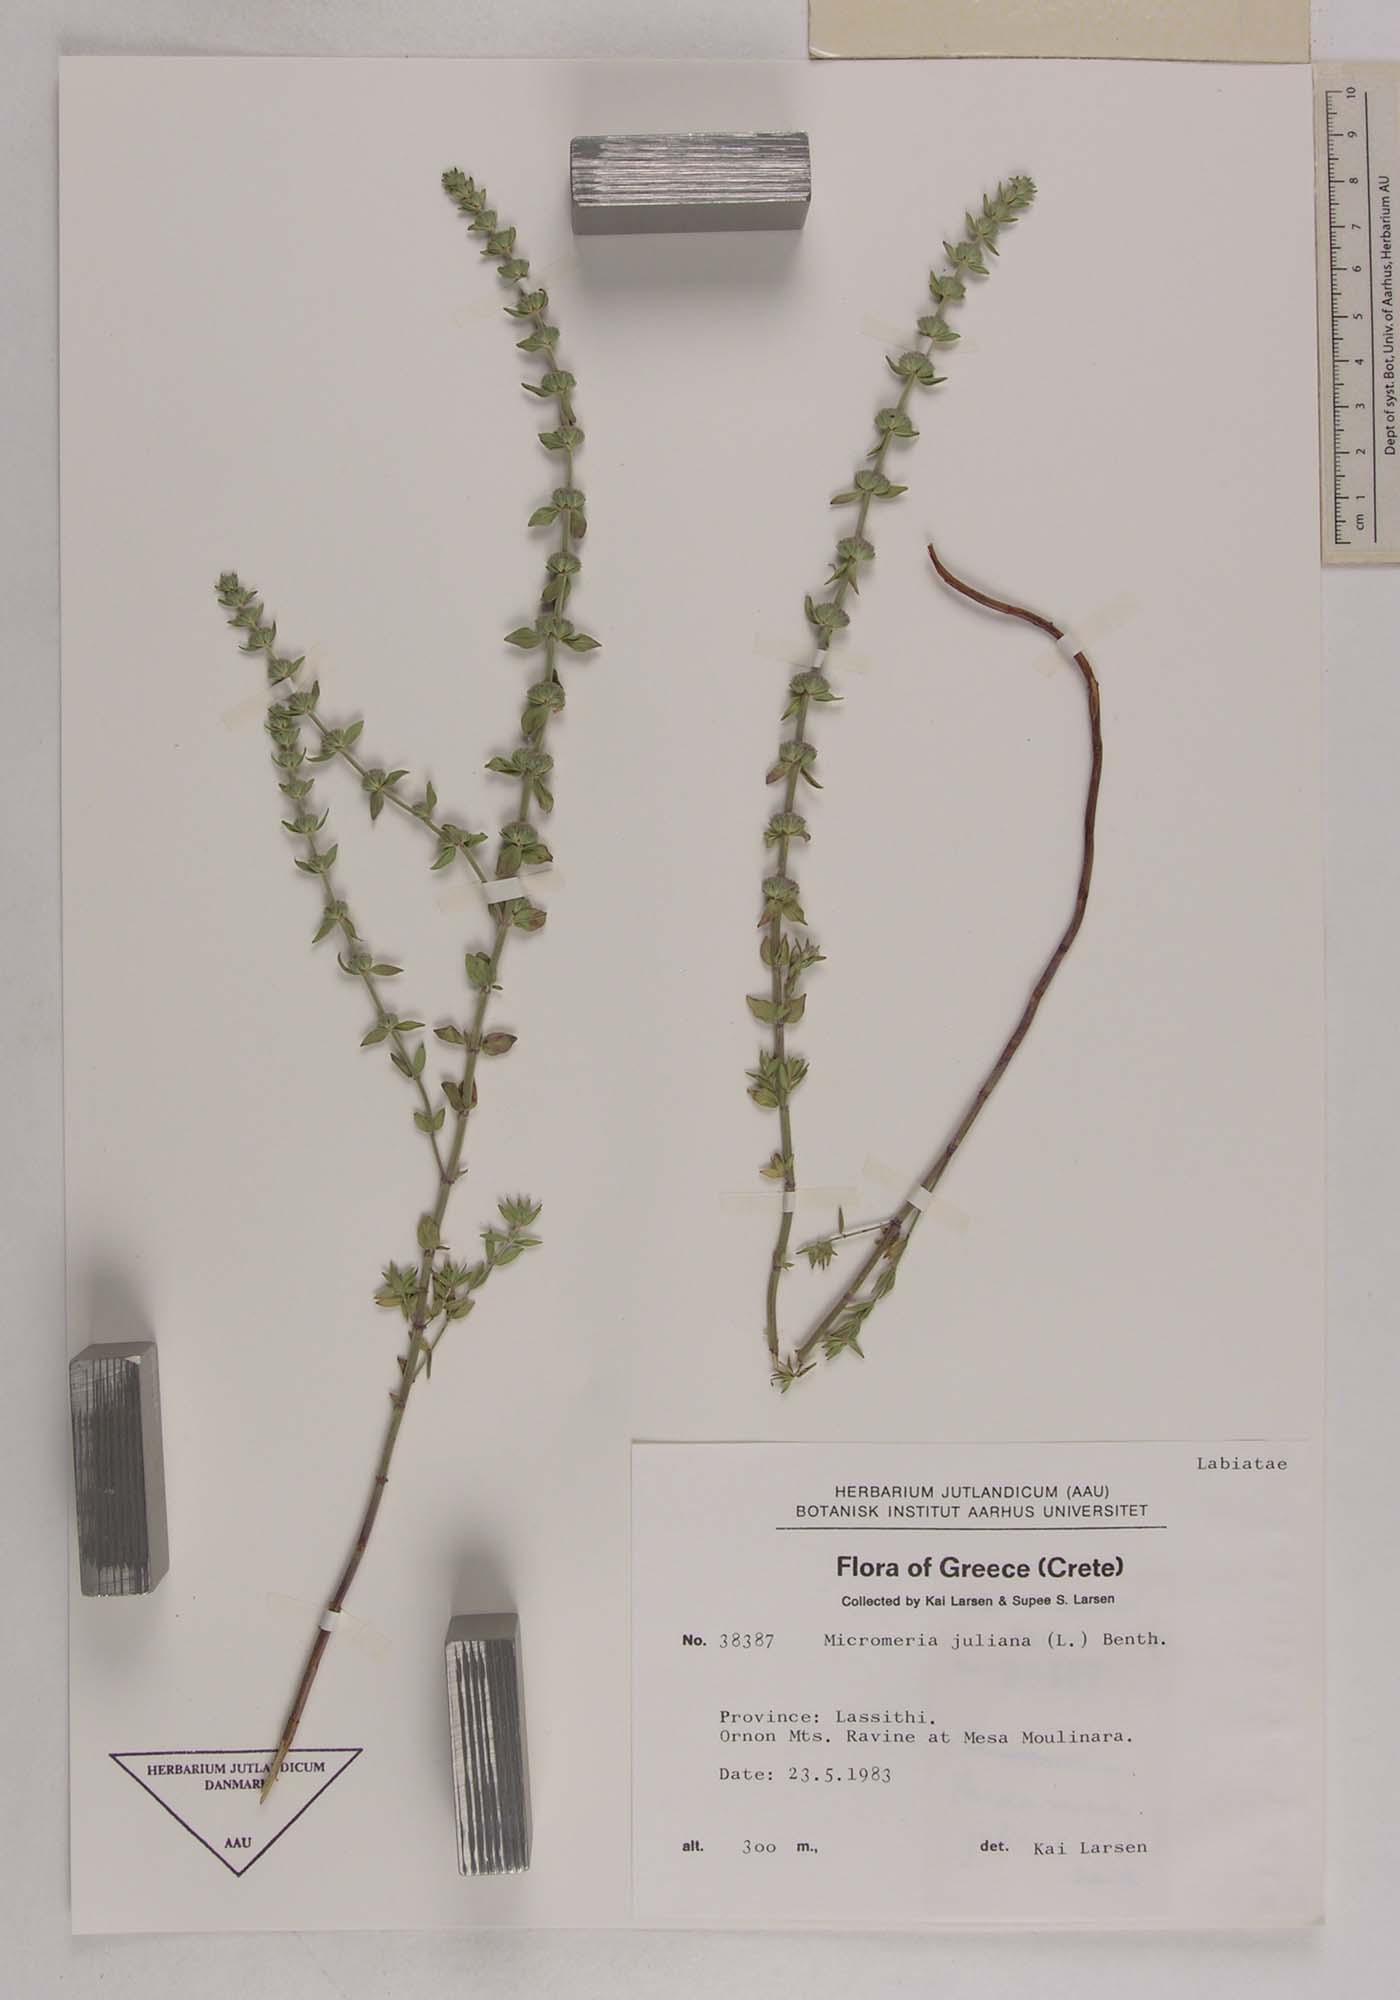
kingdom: Plantae
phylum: Tracheophyta
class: Magnoliopsida
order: Lamiales
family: Lamiaceae
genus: Micromeria
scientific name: Micromeria juliana
